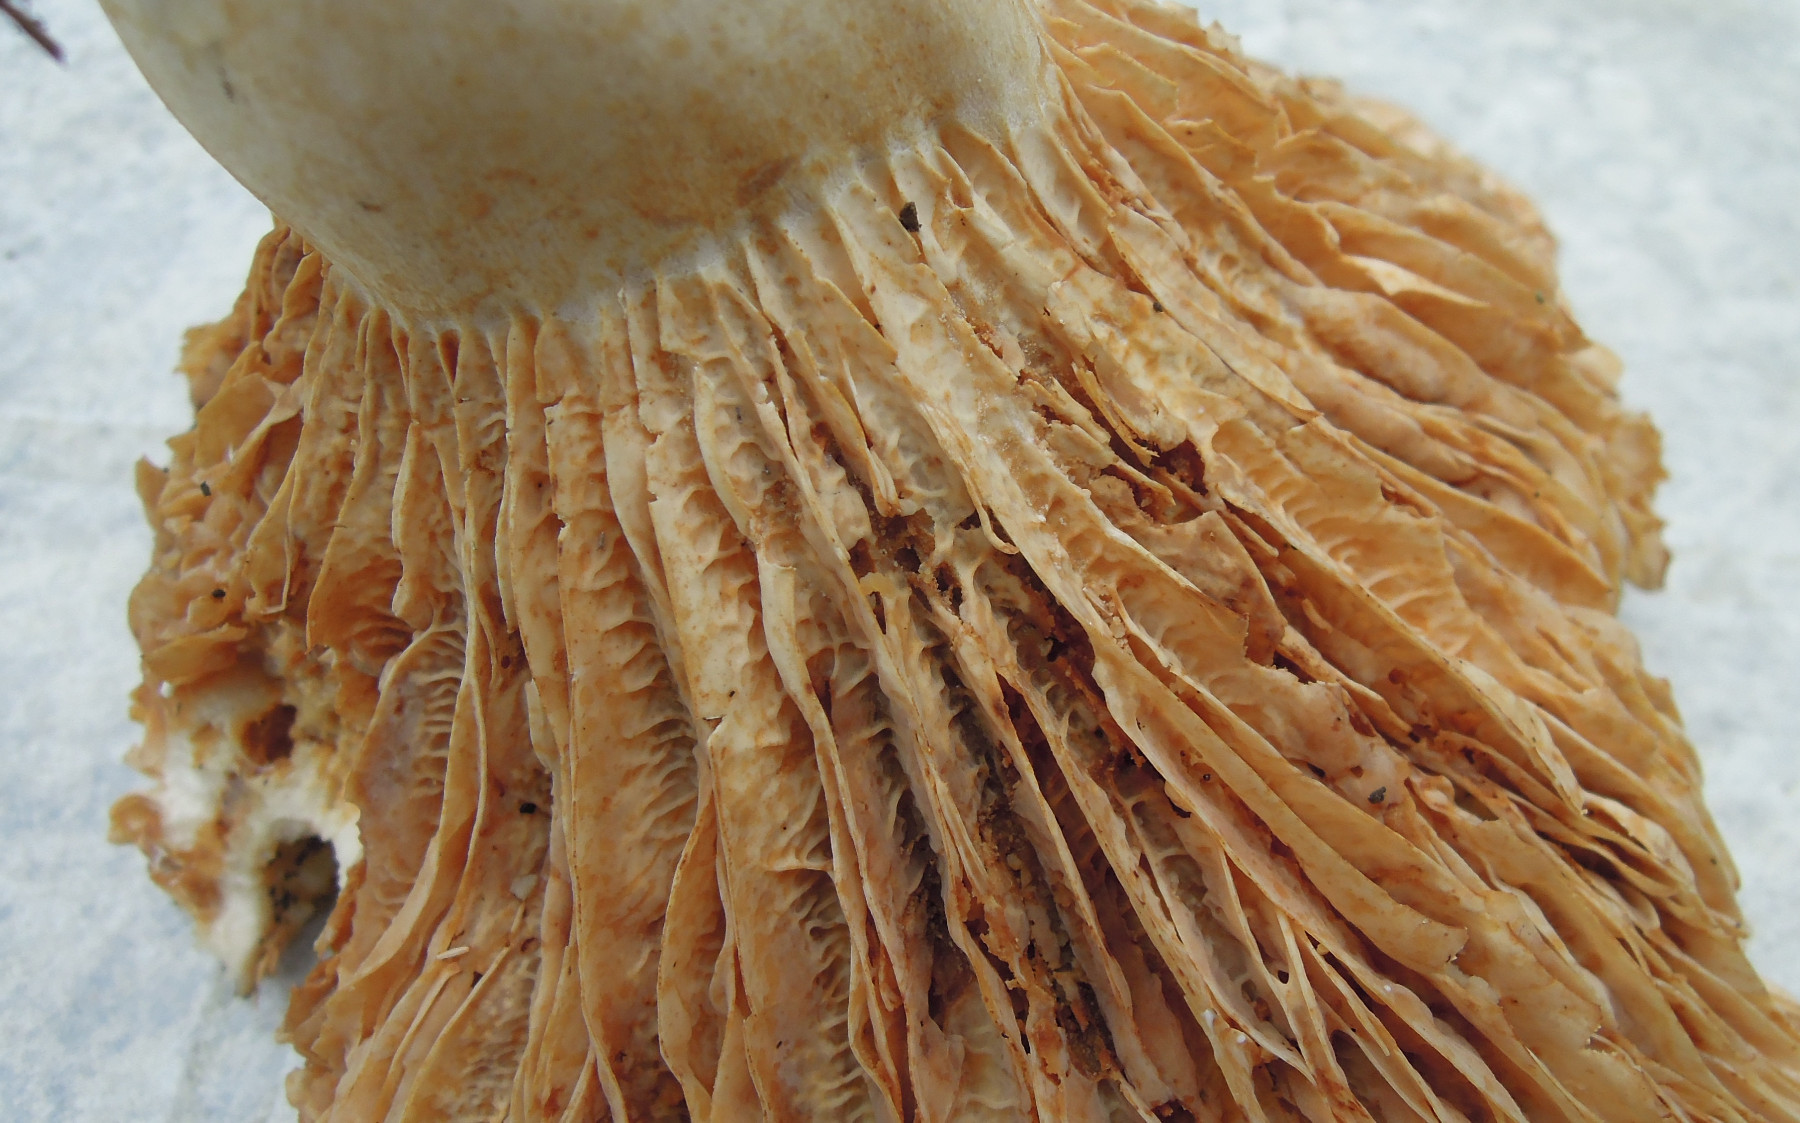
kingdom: Fungi
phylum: Basidiomycota
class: Agaricomycetes
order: Russulales
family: Russulaceae
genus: Lactarius
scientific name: Lactarius acerrimus
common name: brændende mælkehat
